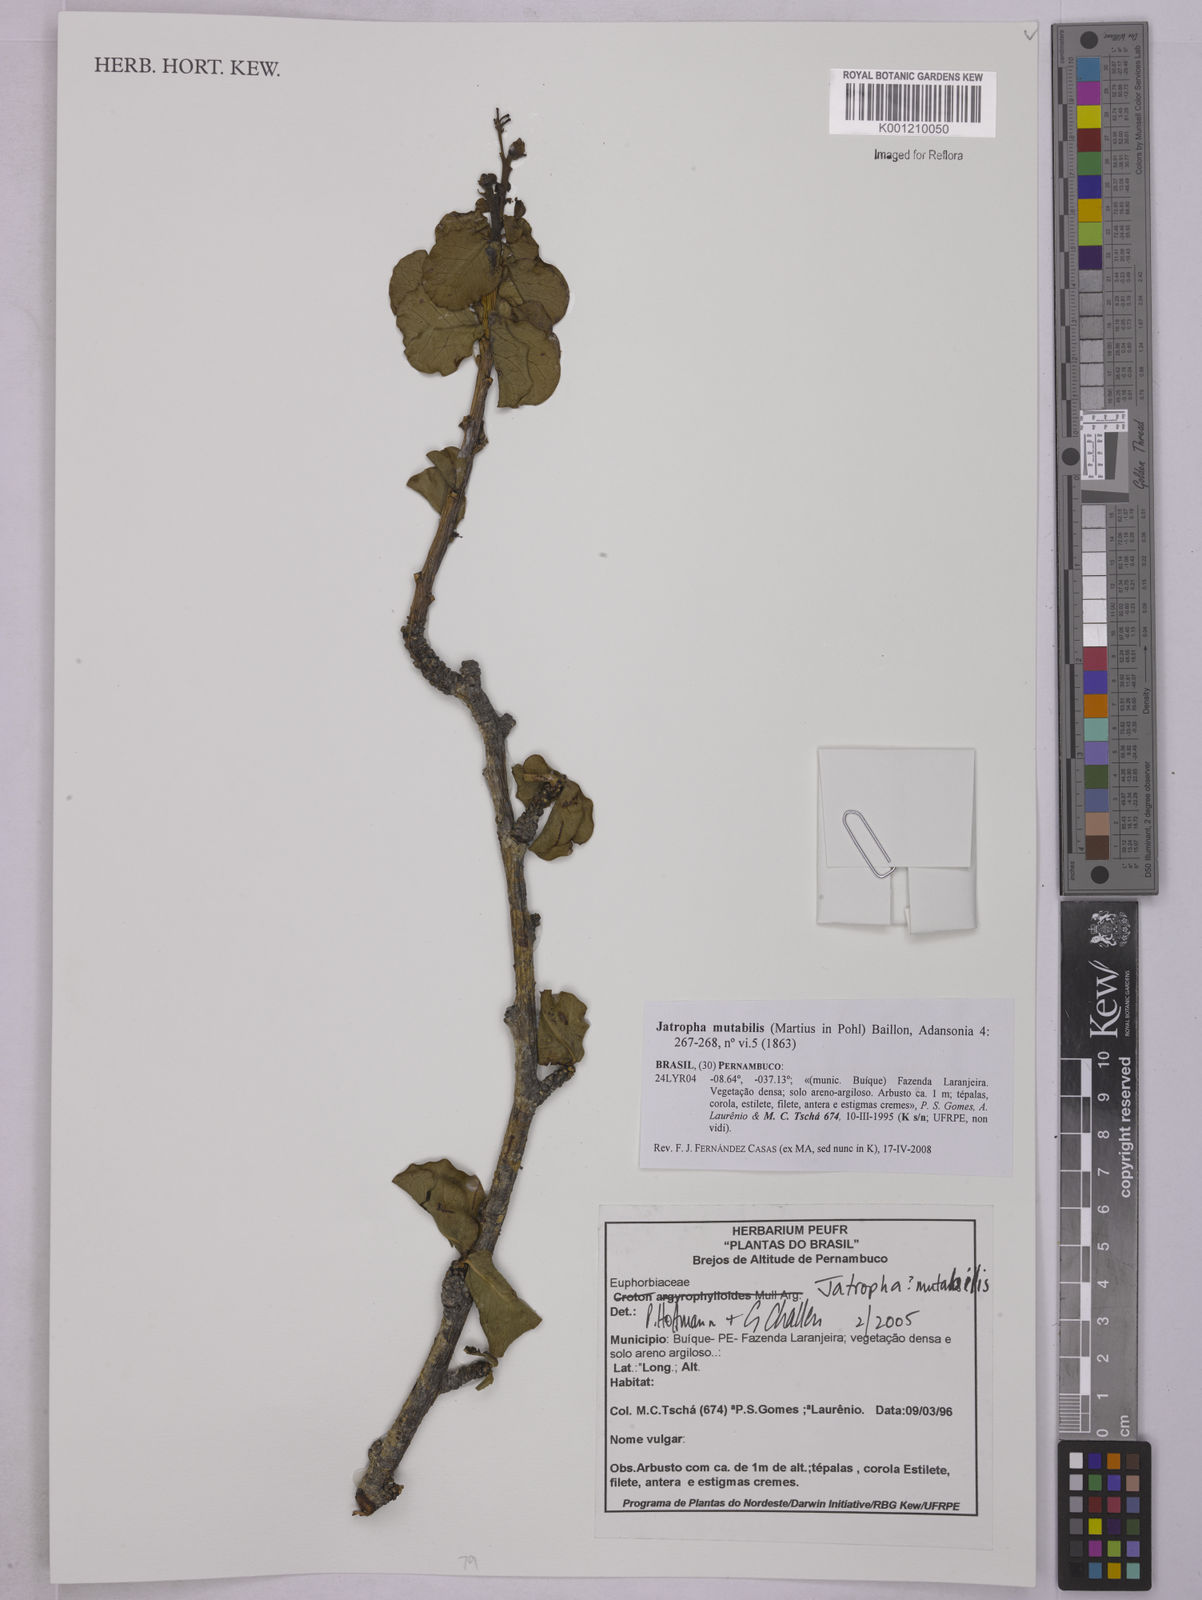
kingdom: Plantae
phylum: Tracheophyta
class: Magnoliopsida
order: Malpighiales
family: Euphorbiaceae
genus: Jatropha
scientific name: Jatropha mutabilis
